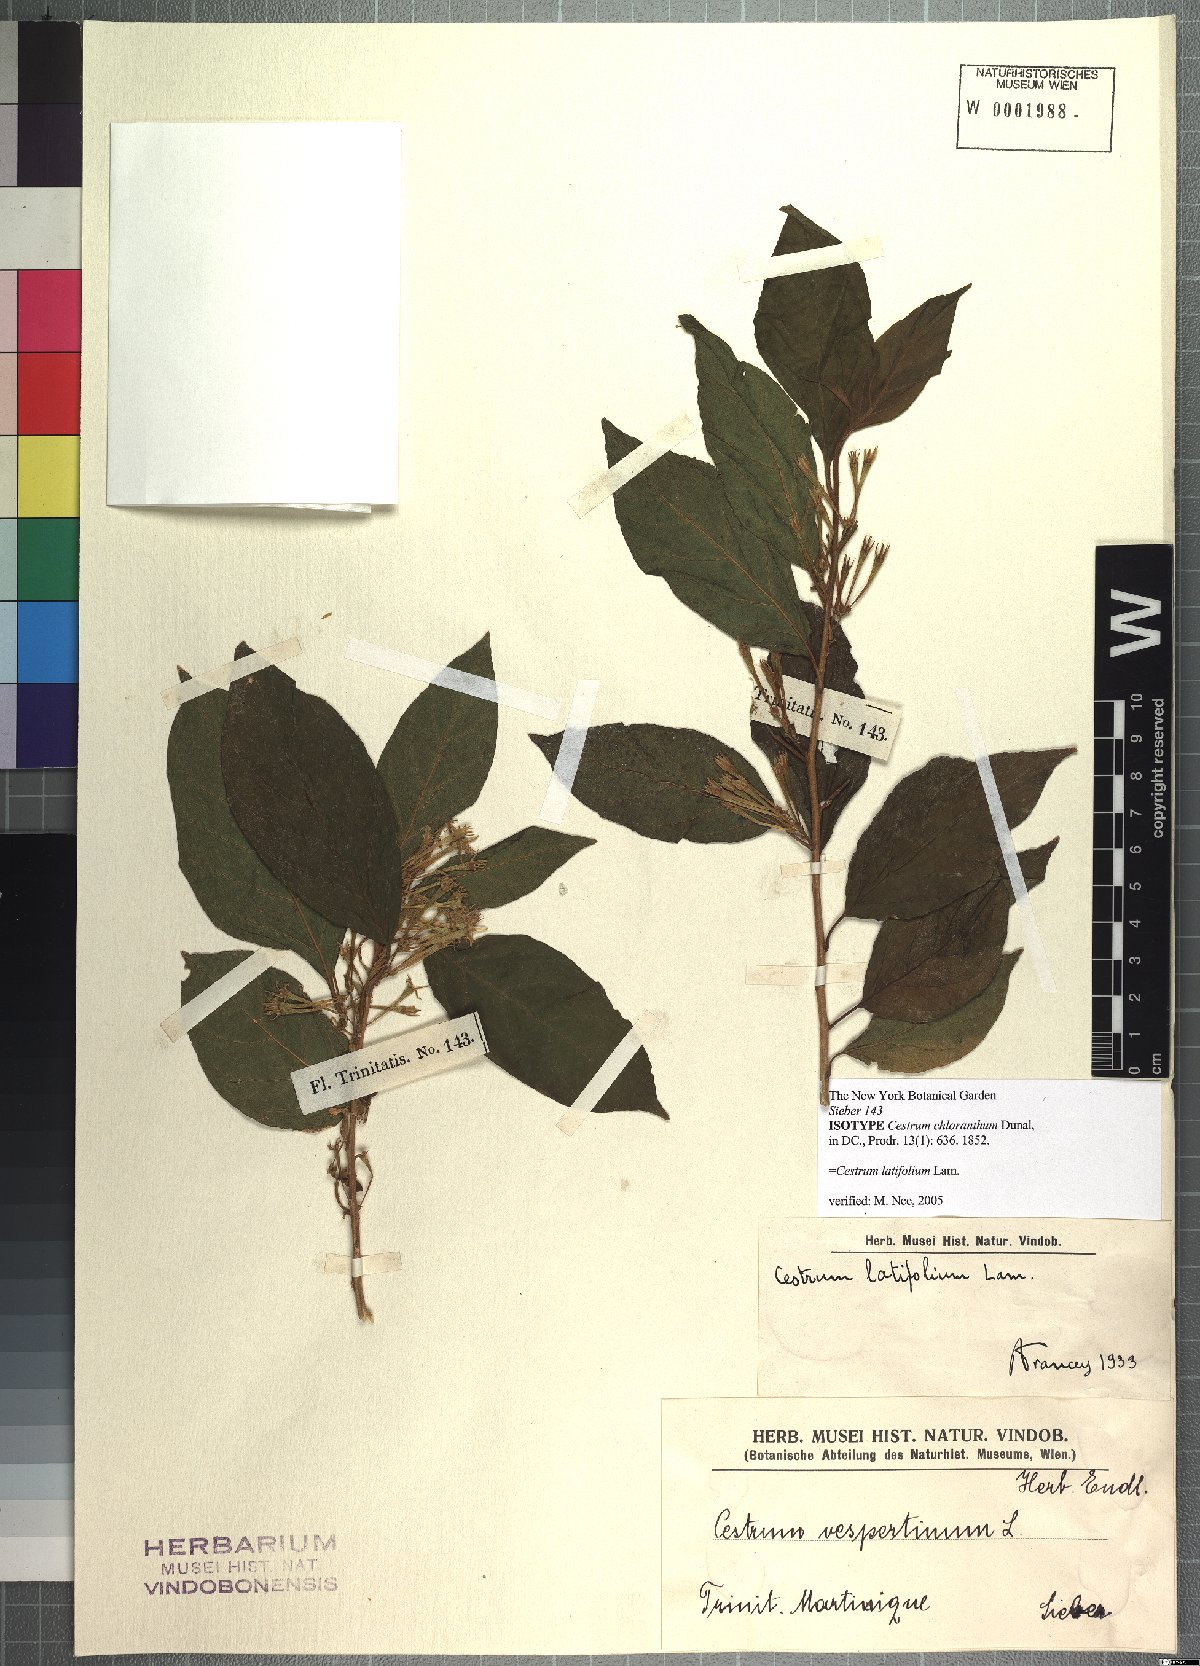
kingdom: Plantae
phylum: Tracheophyta
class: Magnoliopsida
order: Solanales
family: Solanaceae
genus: Cestrum
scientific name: Cestrum latifolium
